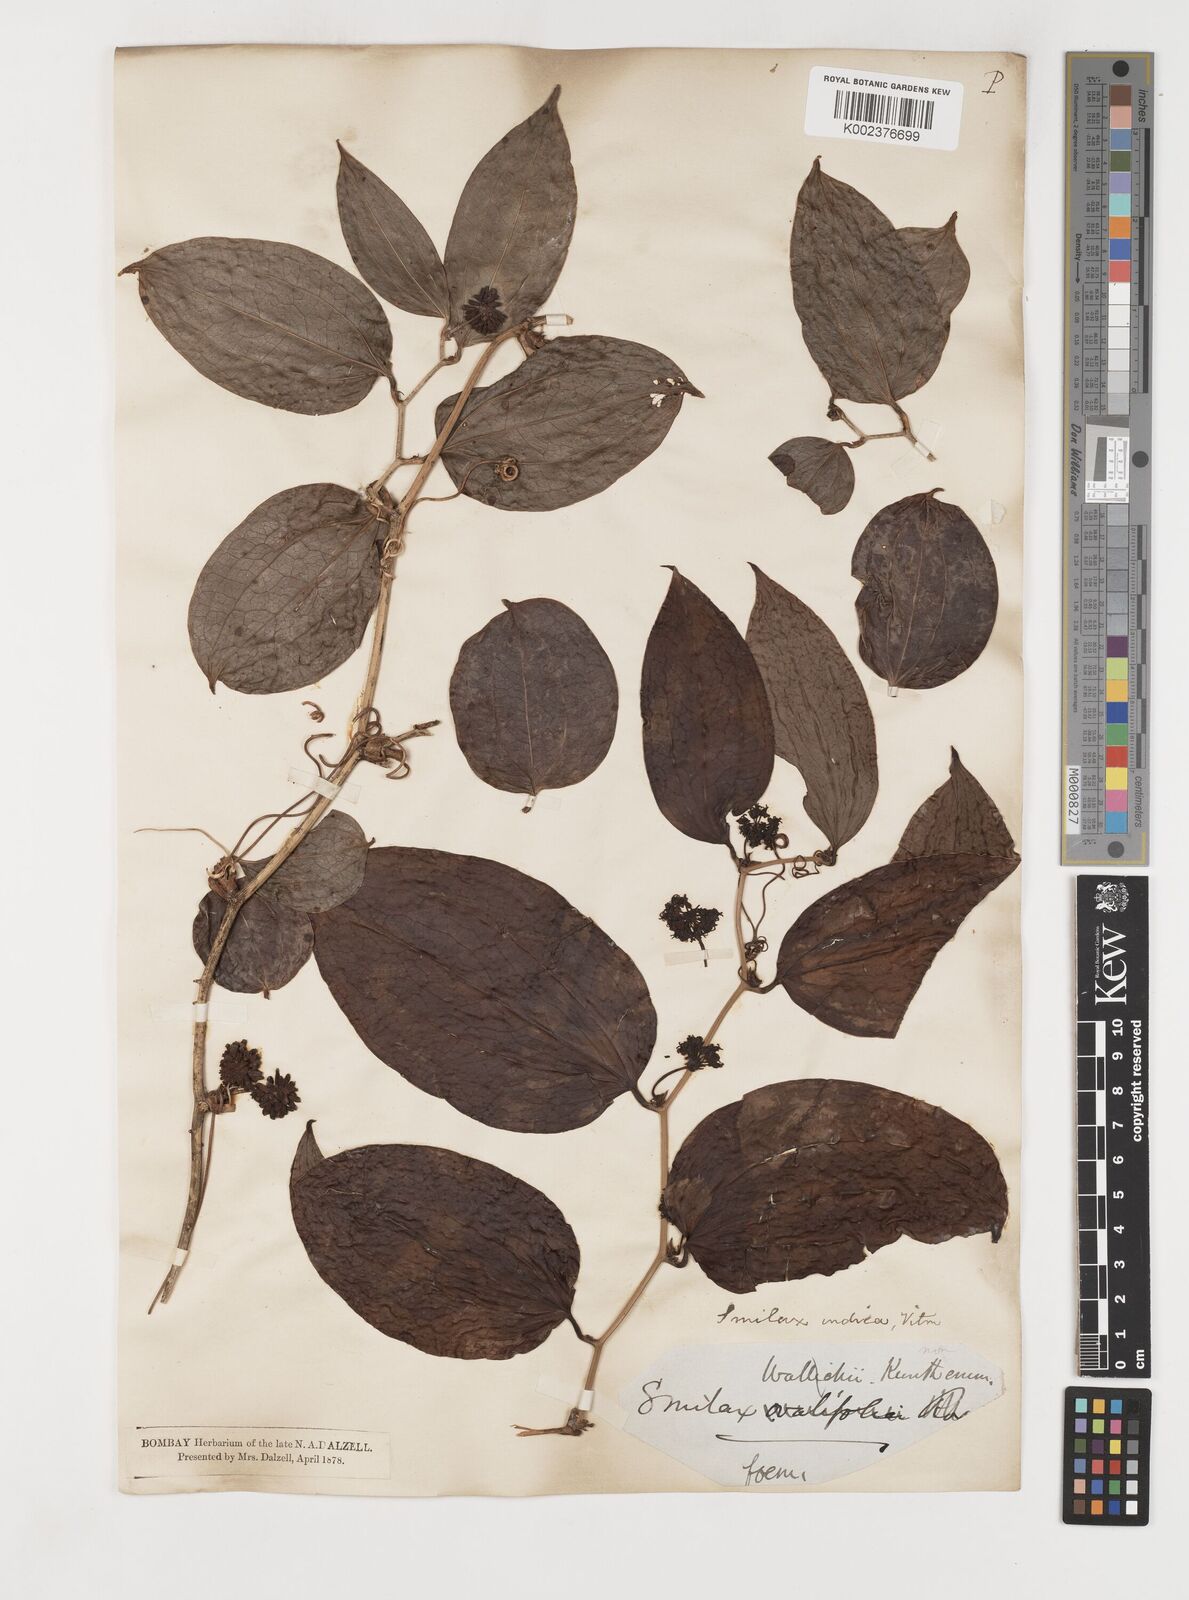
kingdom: Plantae
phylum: Tracheophyta
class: Liliopsida
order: Liliales
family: Smilacaceae
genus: Smilax
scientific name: Smilax zeylanica
